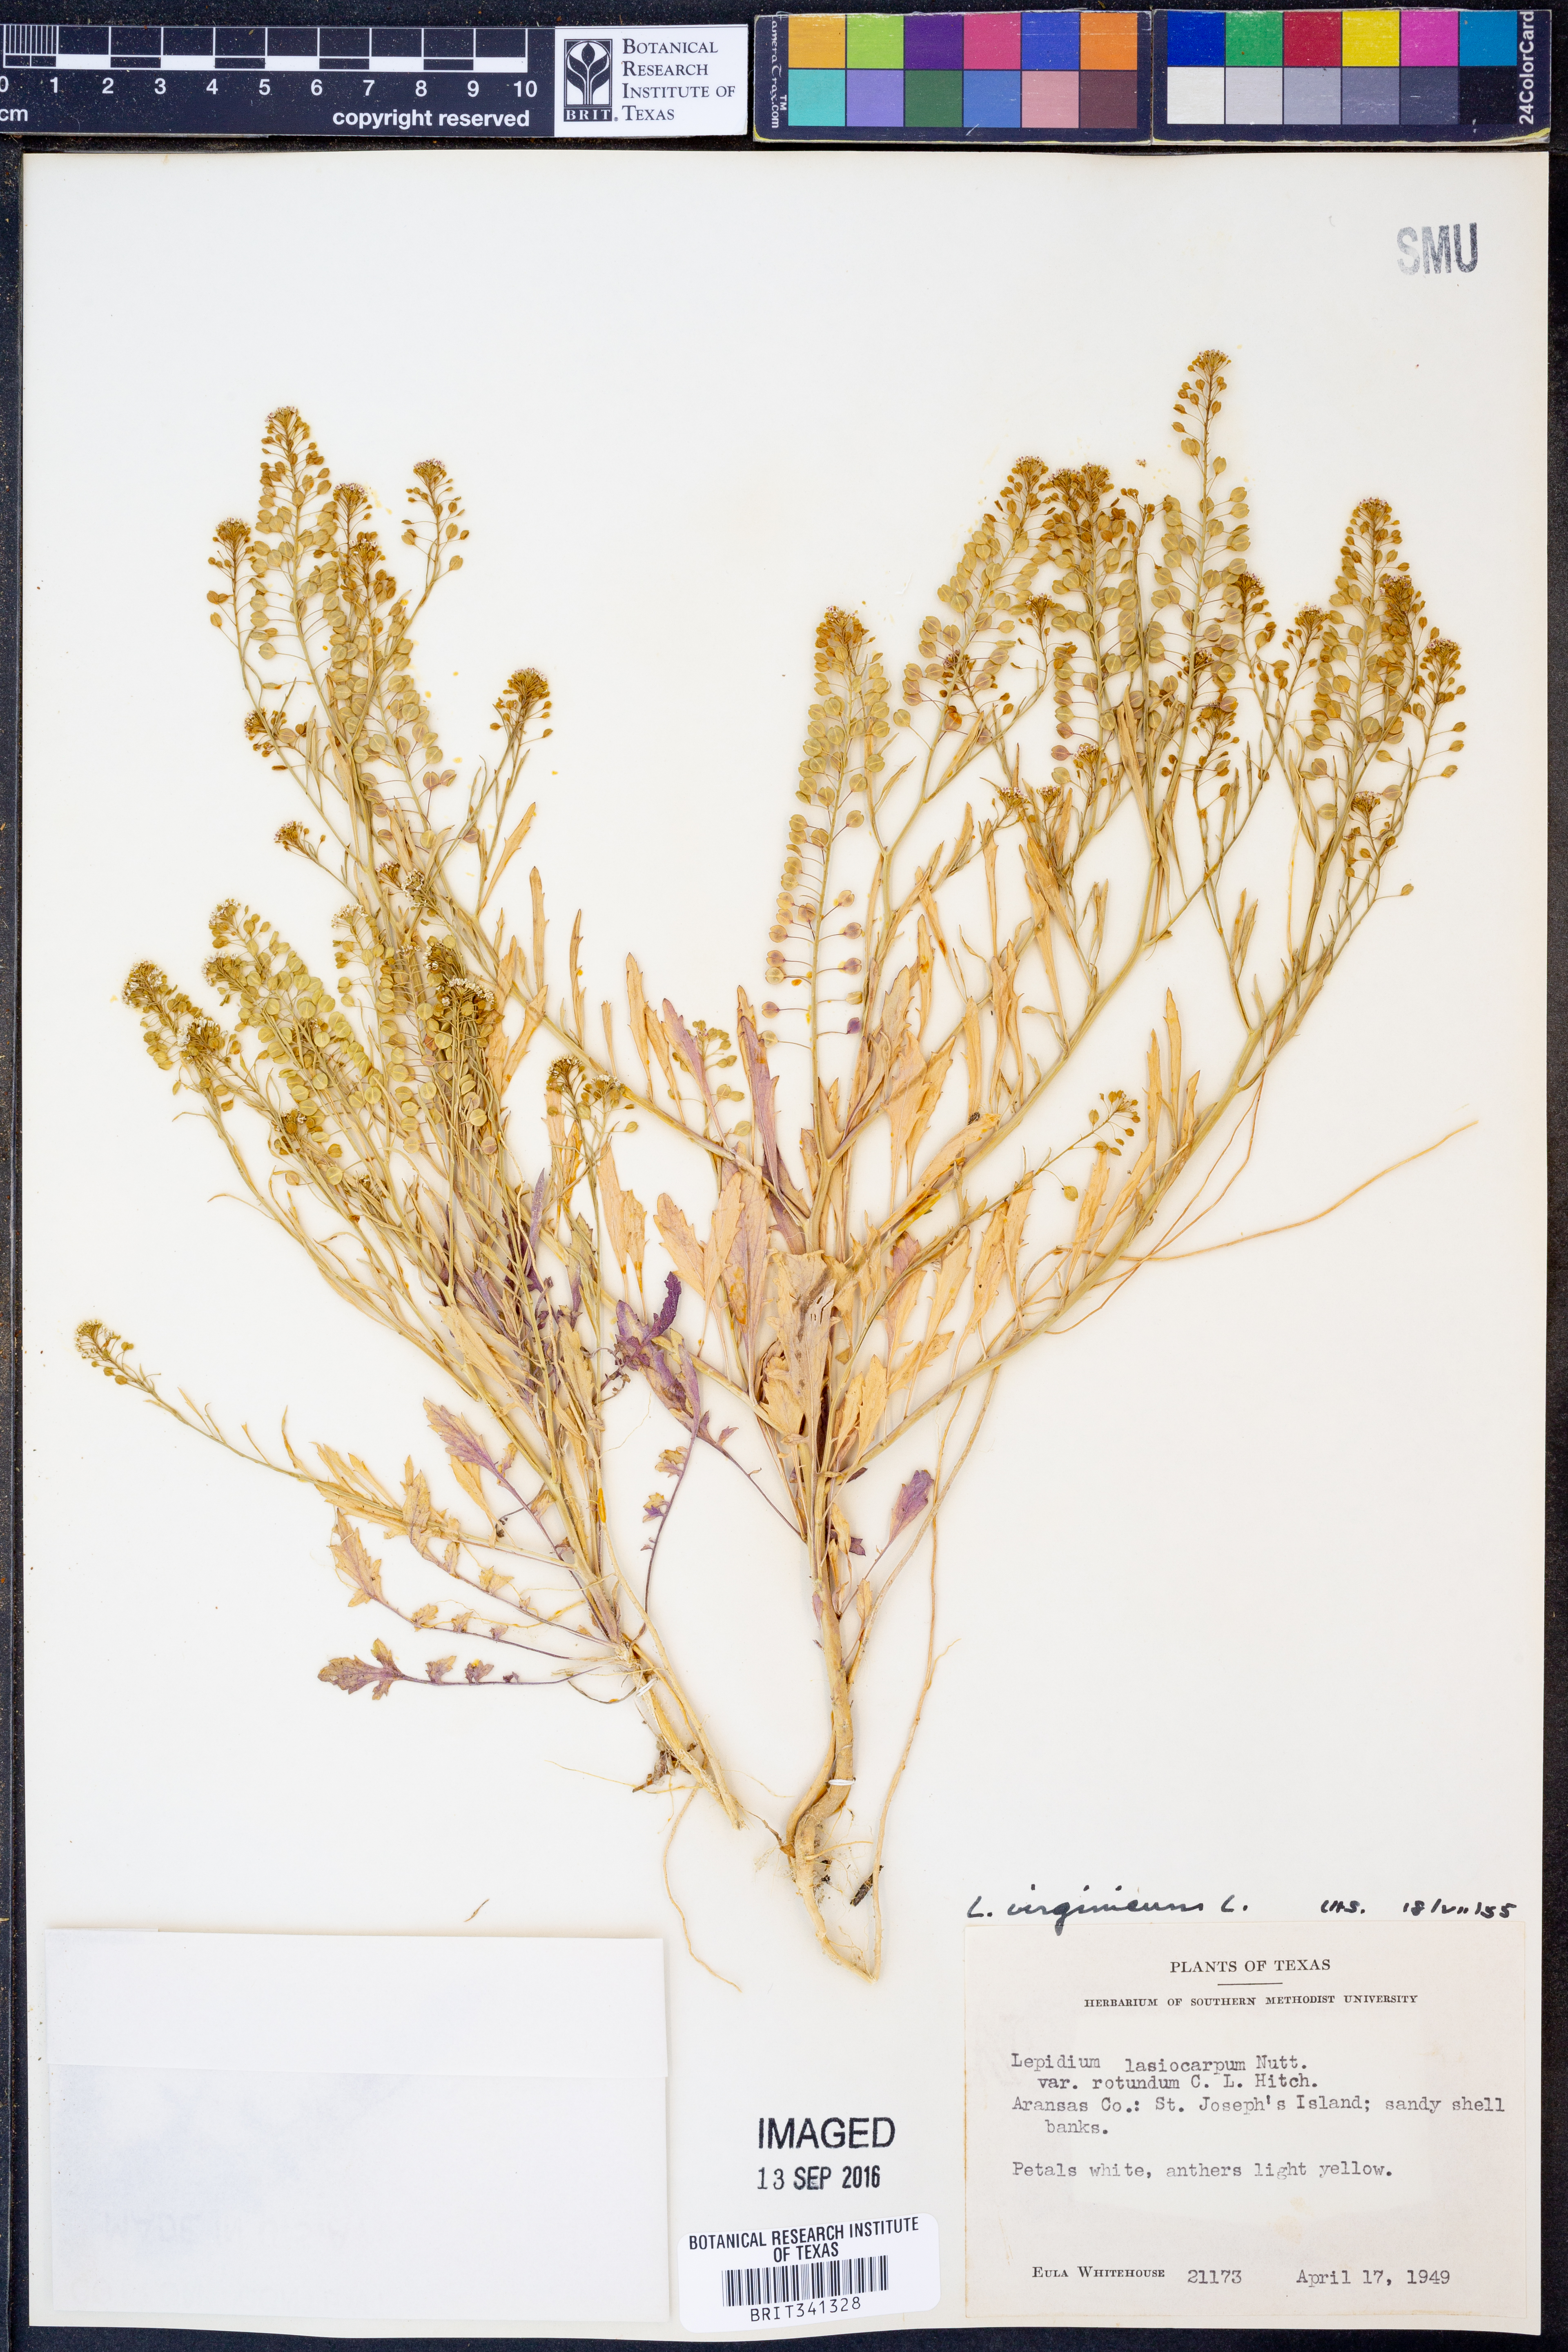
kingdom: Plantae
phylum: Tracheophyta
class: Magnoliopsida
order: Brassicales
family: Brassicaceae
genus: Lepidium
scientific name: Lepidium virginicum
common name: Least pepperwort
